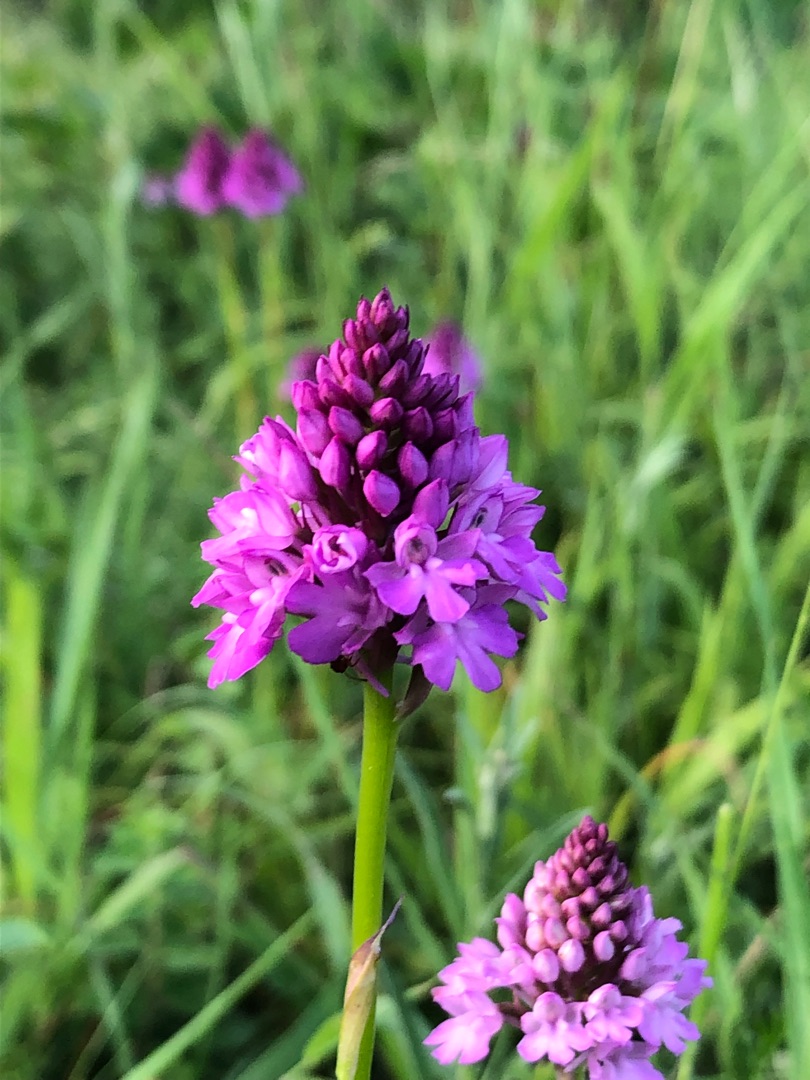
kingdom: Plantae
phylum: Tracheophyta
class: Liliopsida
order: Asparagales
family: Orchidaceae
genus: Anacamptis
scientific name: Anacamptis pyramidalis
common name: Horndrager
